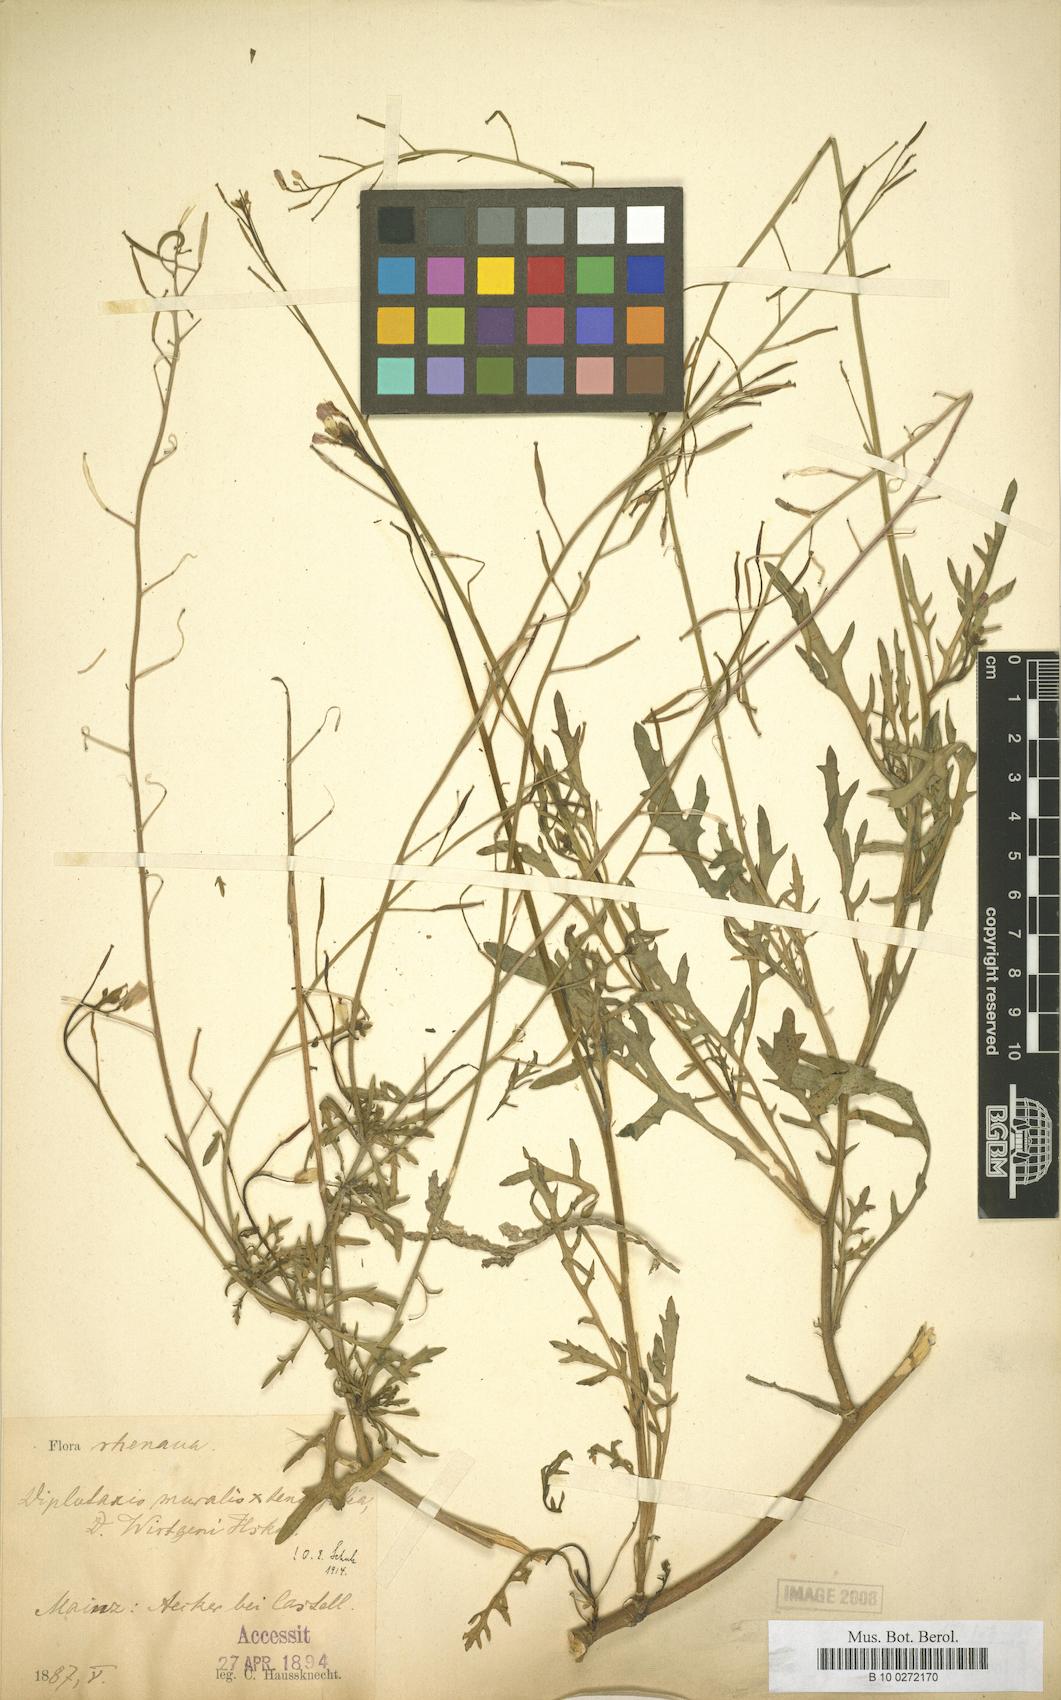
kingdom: Plantae
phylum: Tracheophyta
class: Magnoliopsida
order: Brassicales
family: Brassicaceae
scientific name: Brassicaceae
